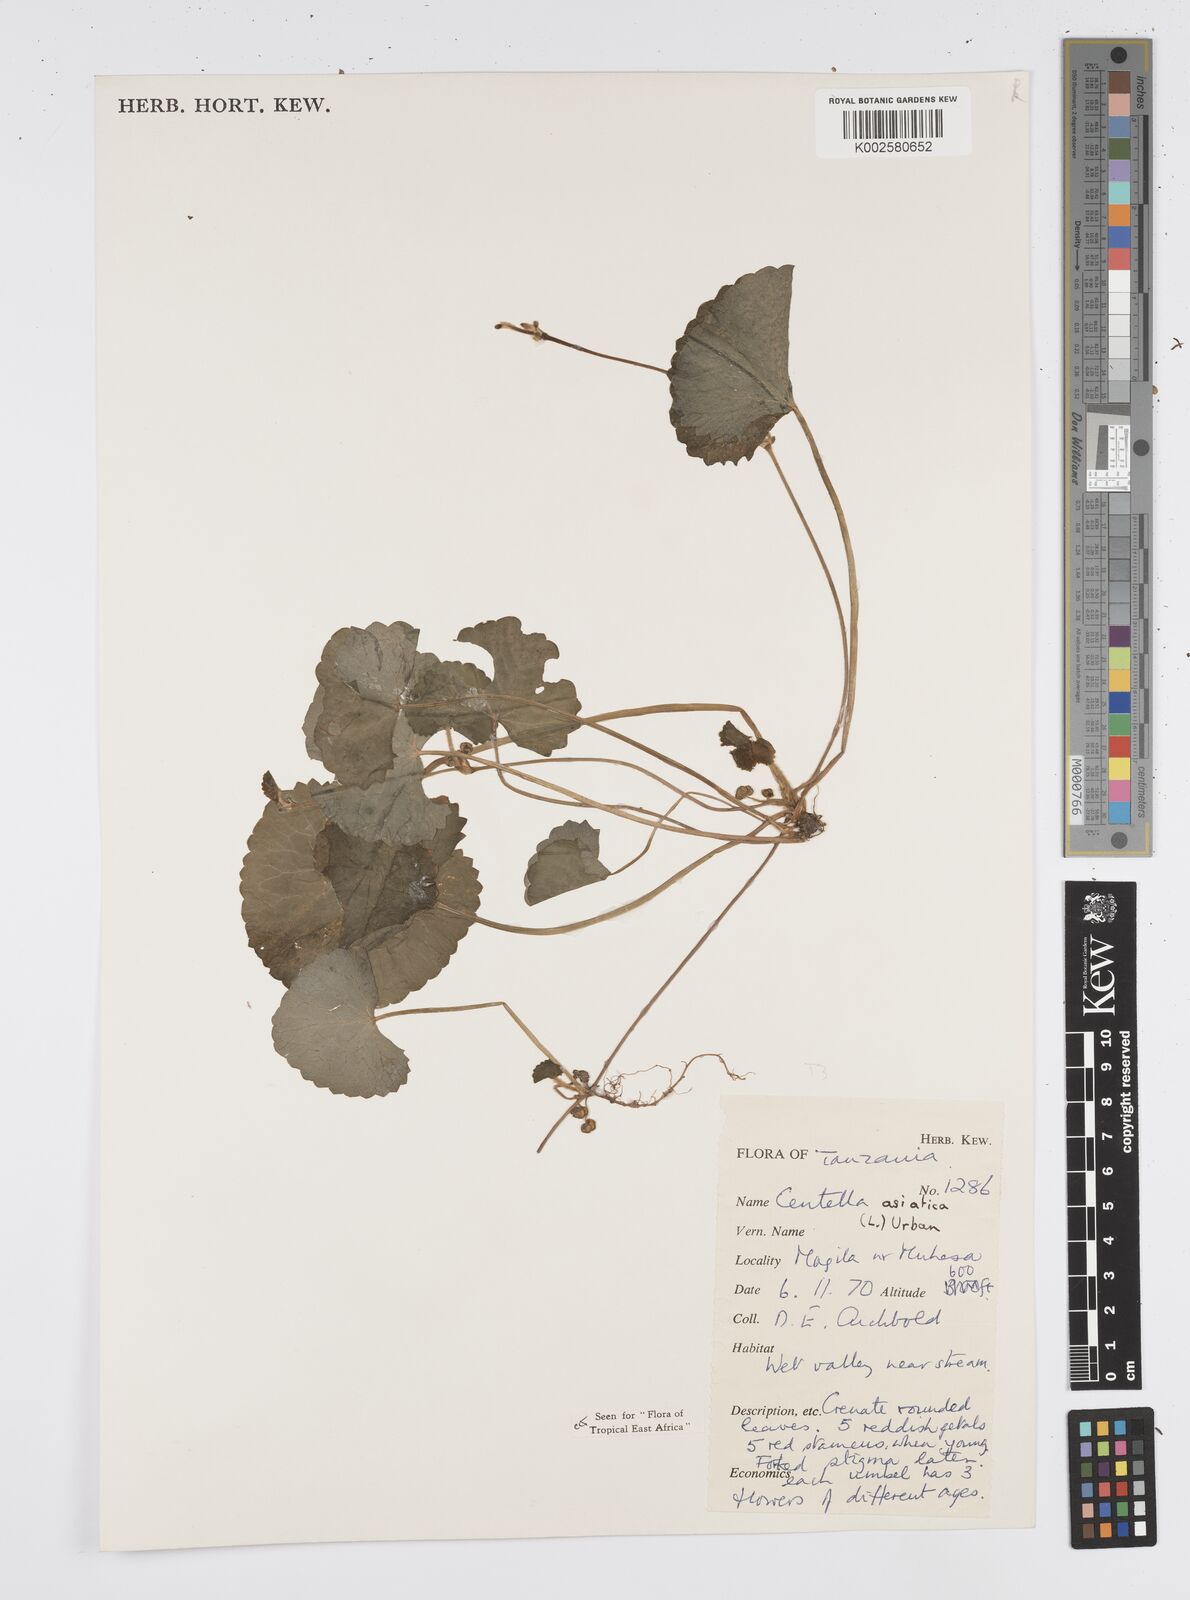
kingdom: Plantae
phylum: Tracheophyta
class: Magnoliopsida
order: Apiales
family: Apiaceae
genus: Centella
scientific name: Centella asiatica
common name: Spadeleaf
